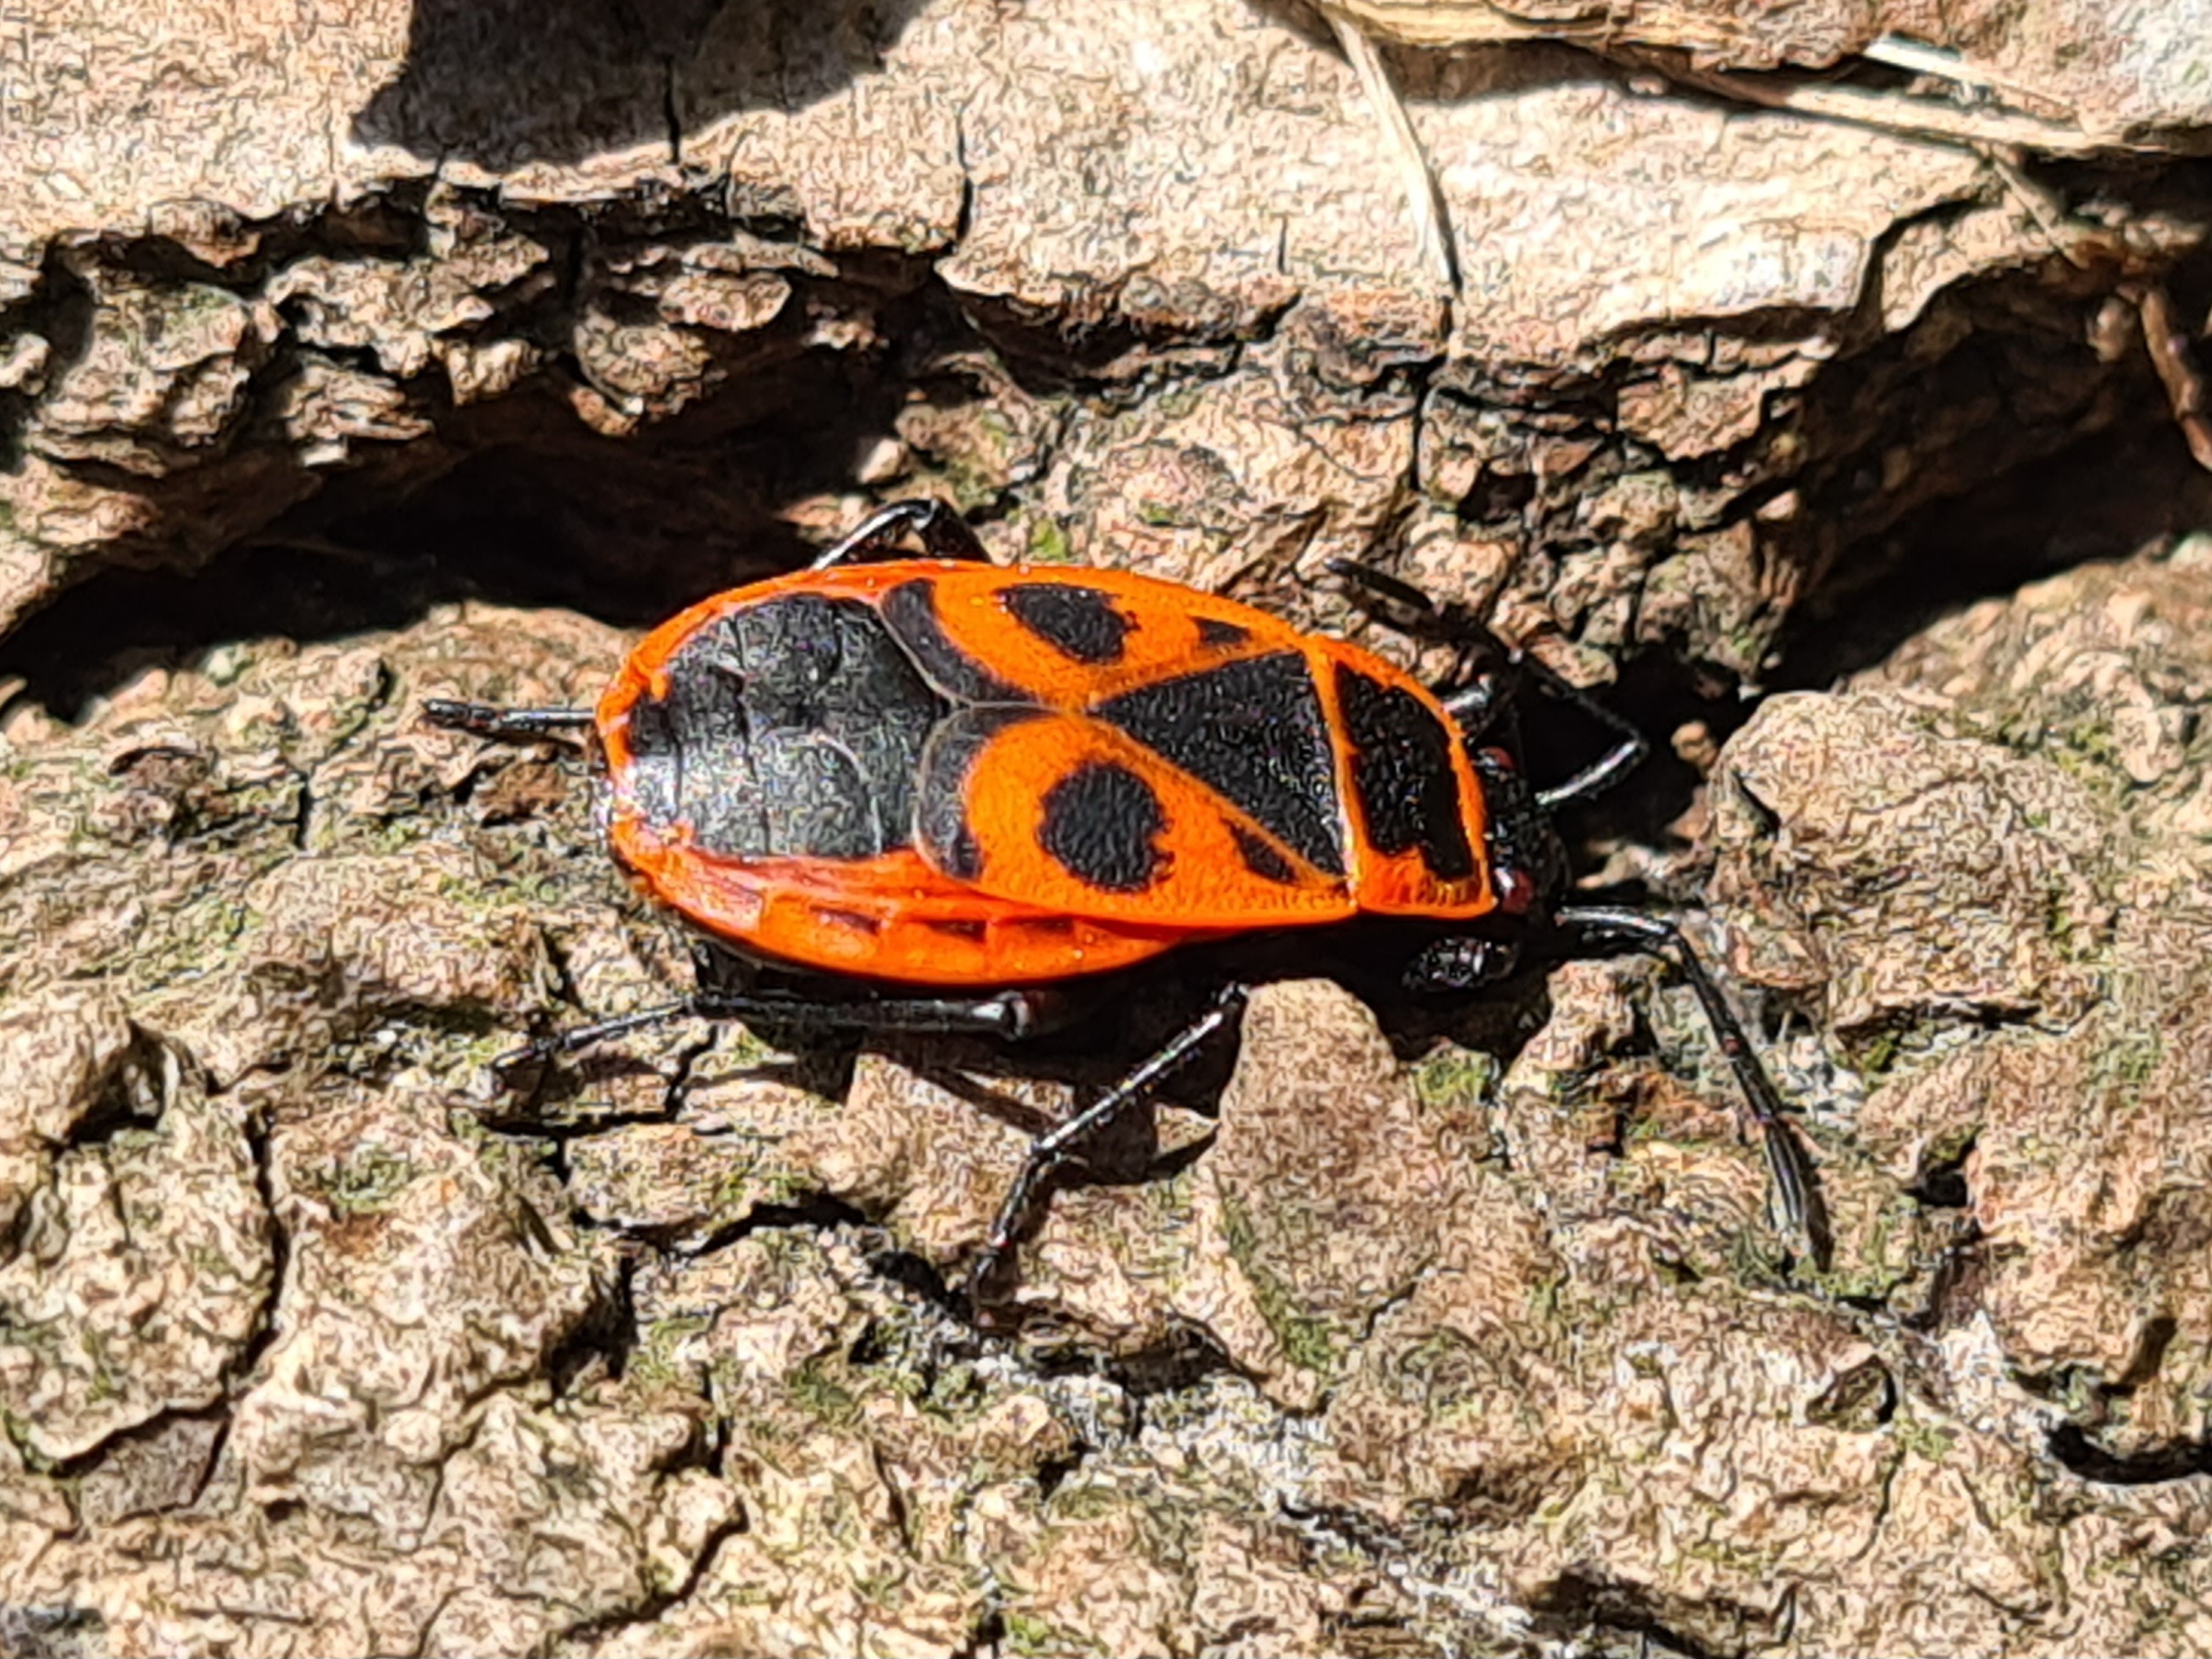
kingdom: Animalia
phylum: Arthropoda
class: Insecta
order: Hemiptera
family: Pyrrhocoridae
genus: Pyrrhocoris
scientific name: Pyrrhocoris apterus
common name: Ildtæge
